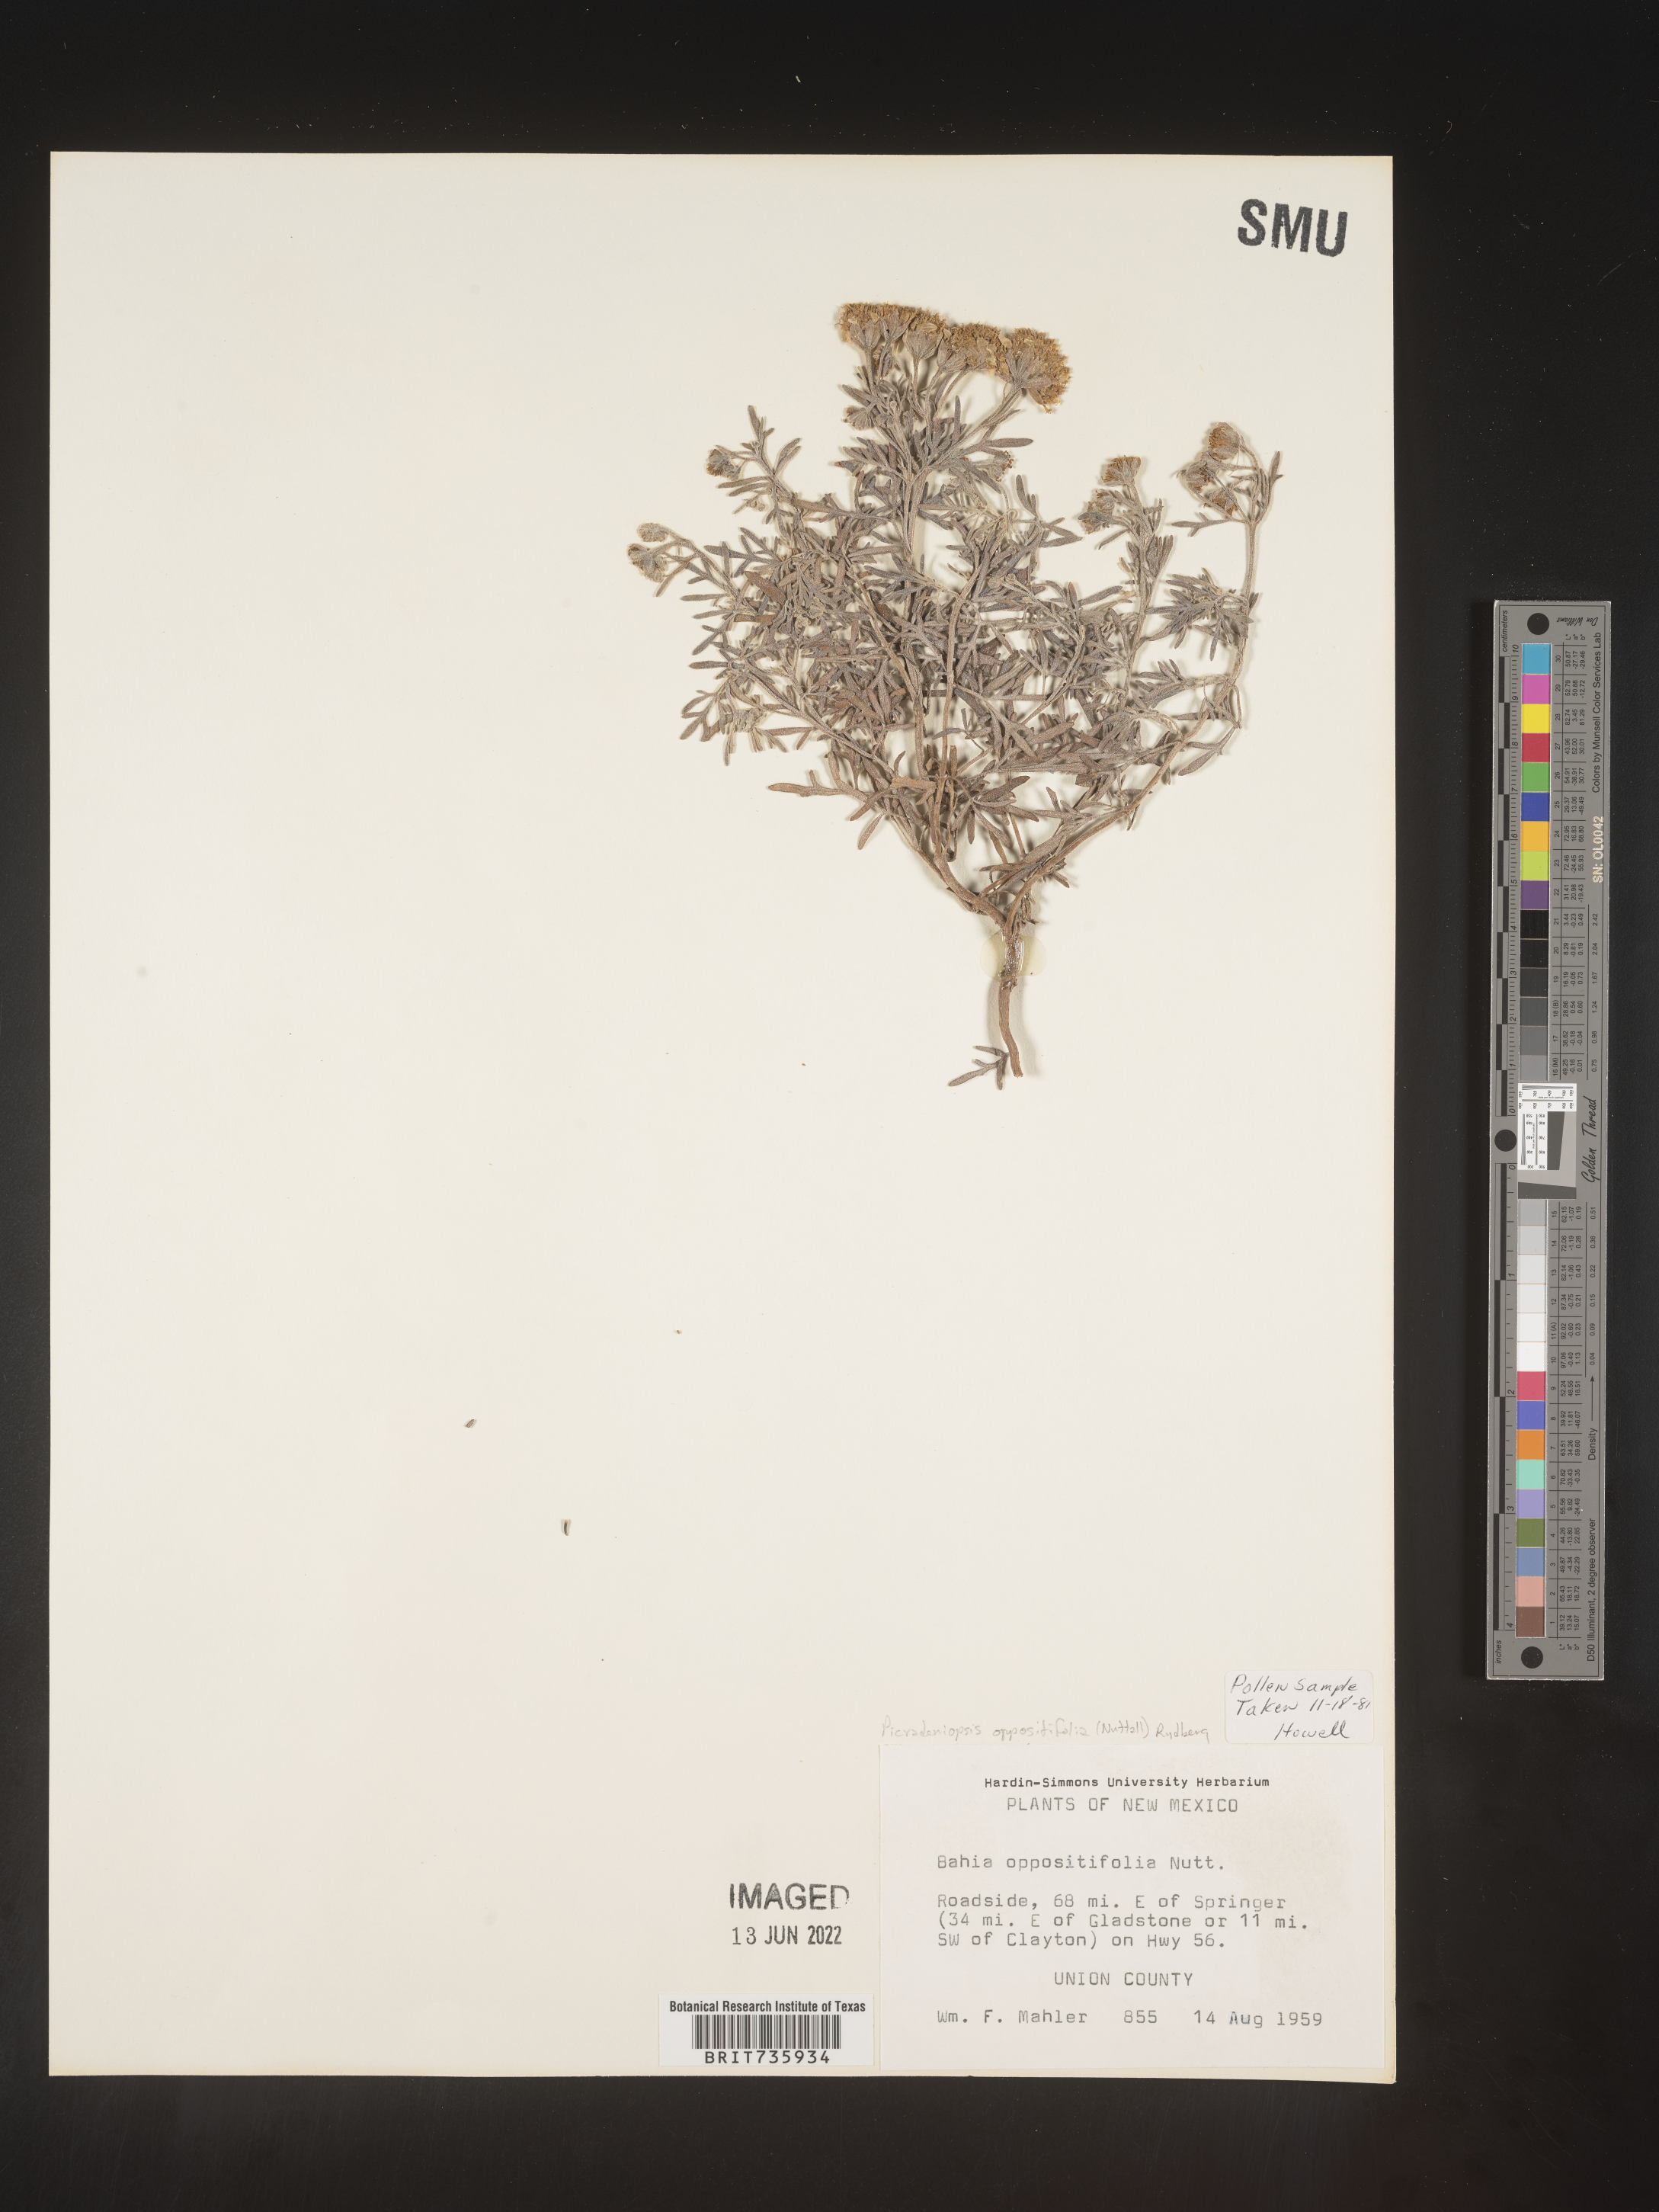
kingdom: Plantae
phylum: Tracheophyta
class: Magnoliopsida
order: Asterales
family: Asteraceae
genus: Bahia
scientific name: Bahia oppositifolia
